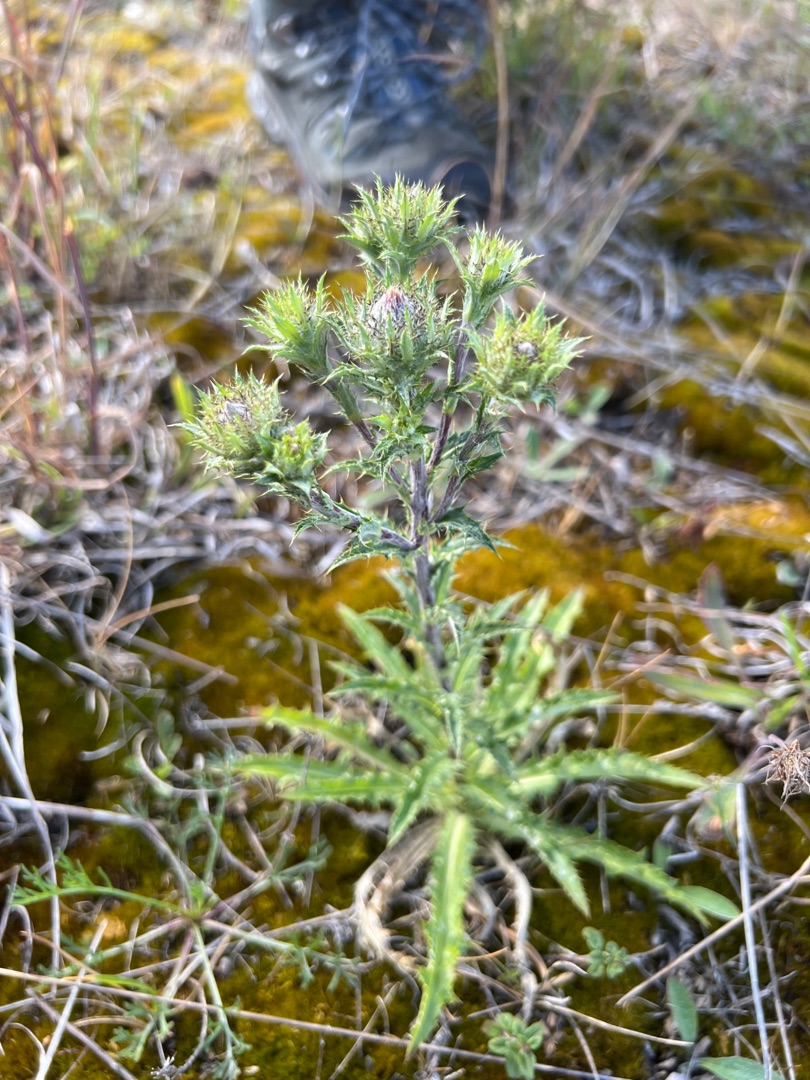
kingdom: Plantae
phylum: Tracheophyta
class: Magnoliopsida
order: Asterales
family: Asteraceae
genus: Carlina
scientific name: Carlina vulgaris
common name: Bakketidsel
